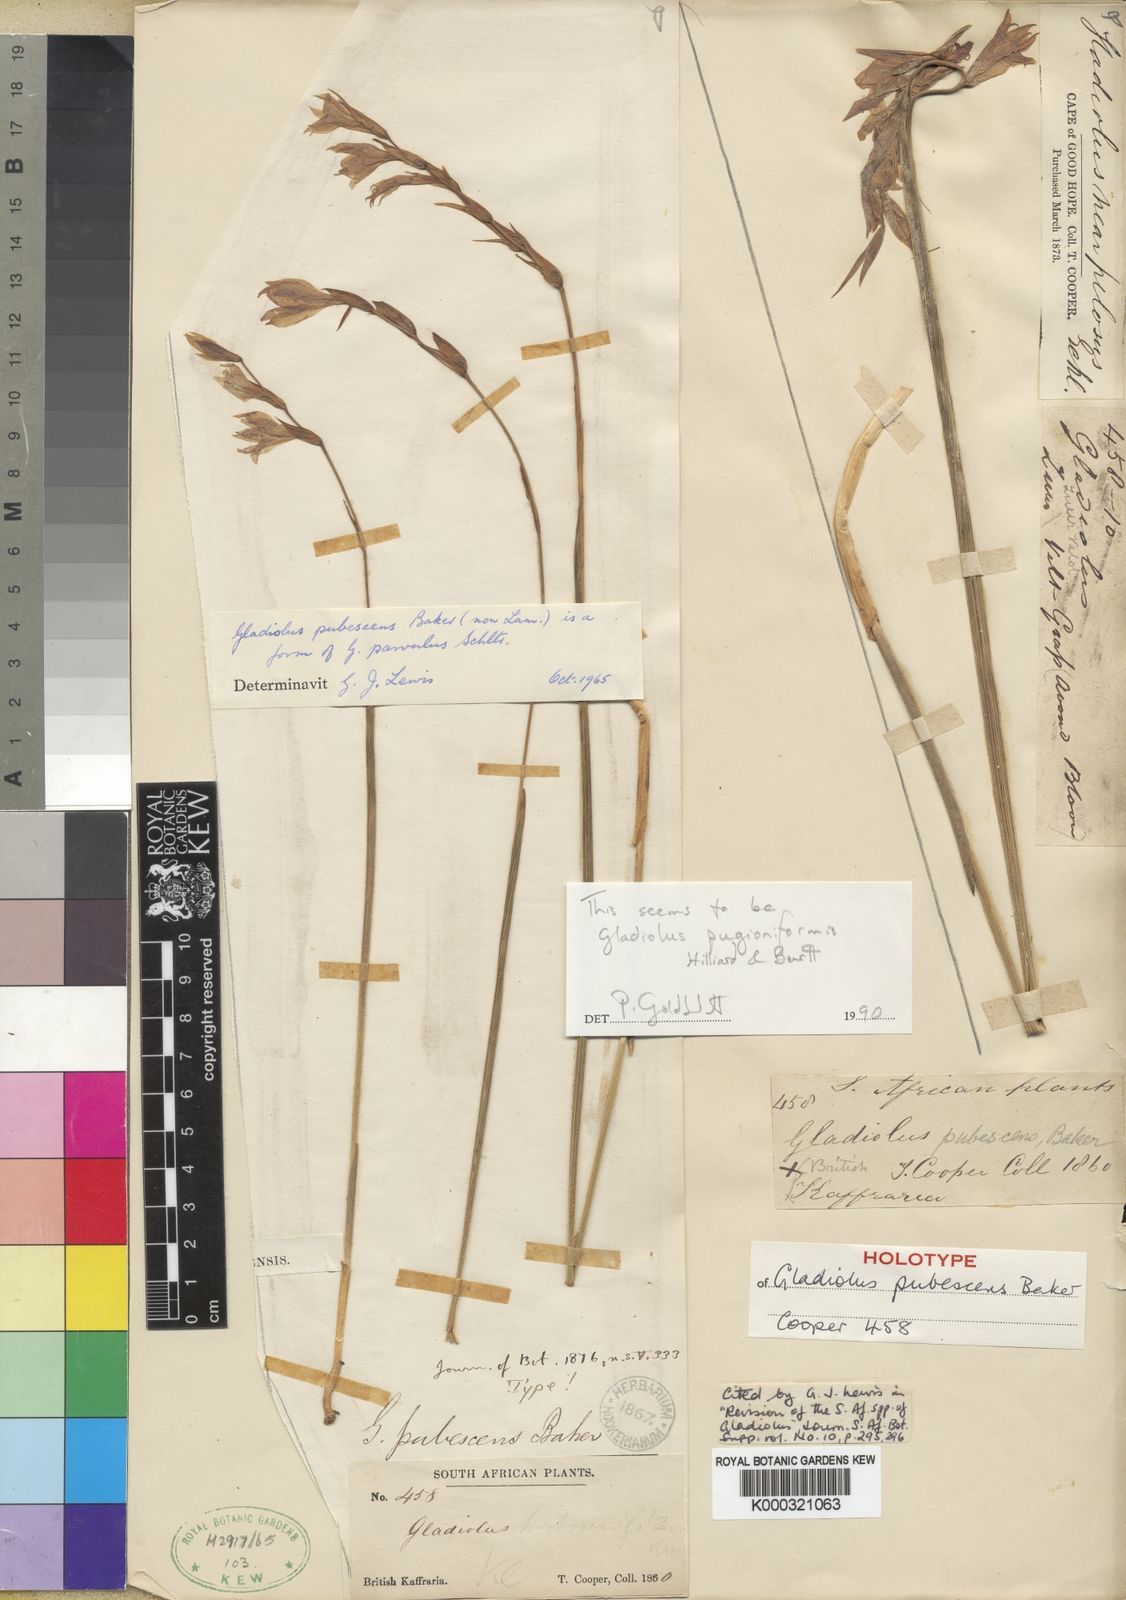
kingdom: Plantae
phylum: Tracheophyta
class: Liliopsida
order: Asparagales
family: Iridaceae
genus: Gladiolus
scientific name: Gladiolus pubigerus
